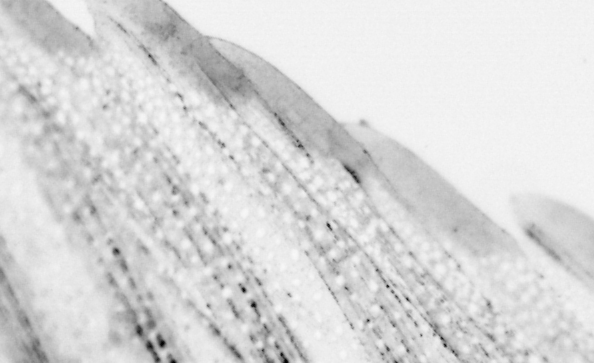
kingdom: Animalia
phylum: Chordata
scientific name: Chordata
